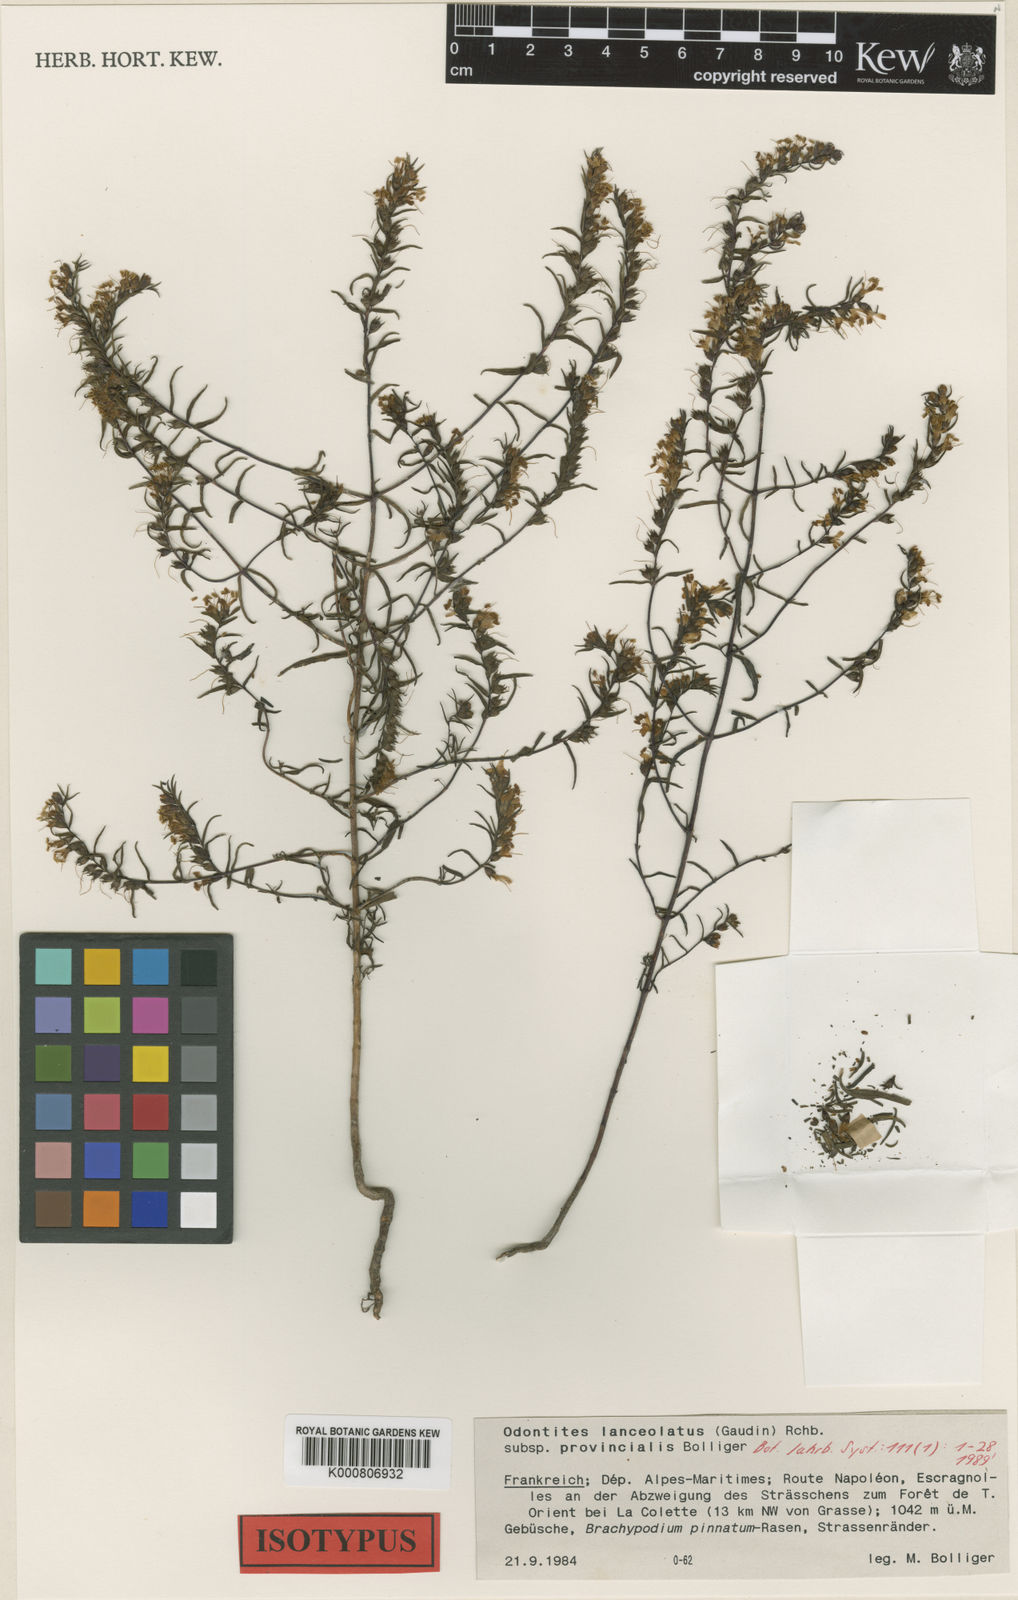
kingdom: Plantae
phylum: Tracheophyta
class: Magnoliopsida
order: Lamiales
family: Orobanchaceae
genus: Odontites
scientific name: Odontites lanceolatus
